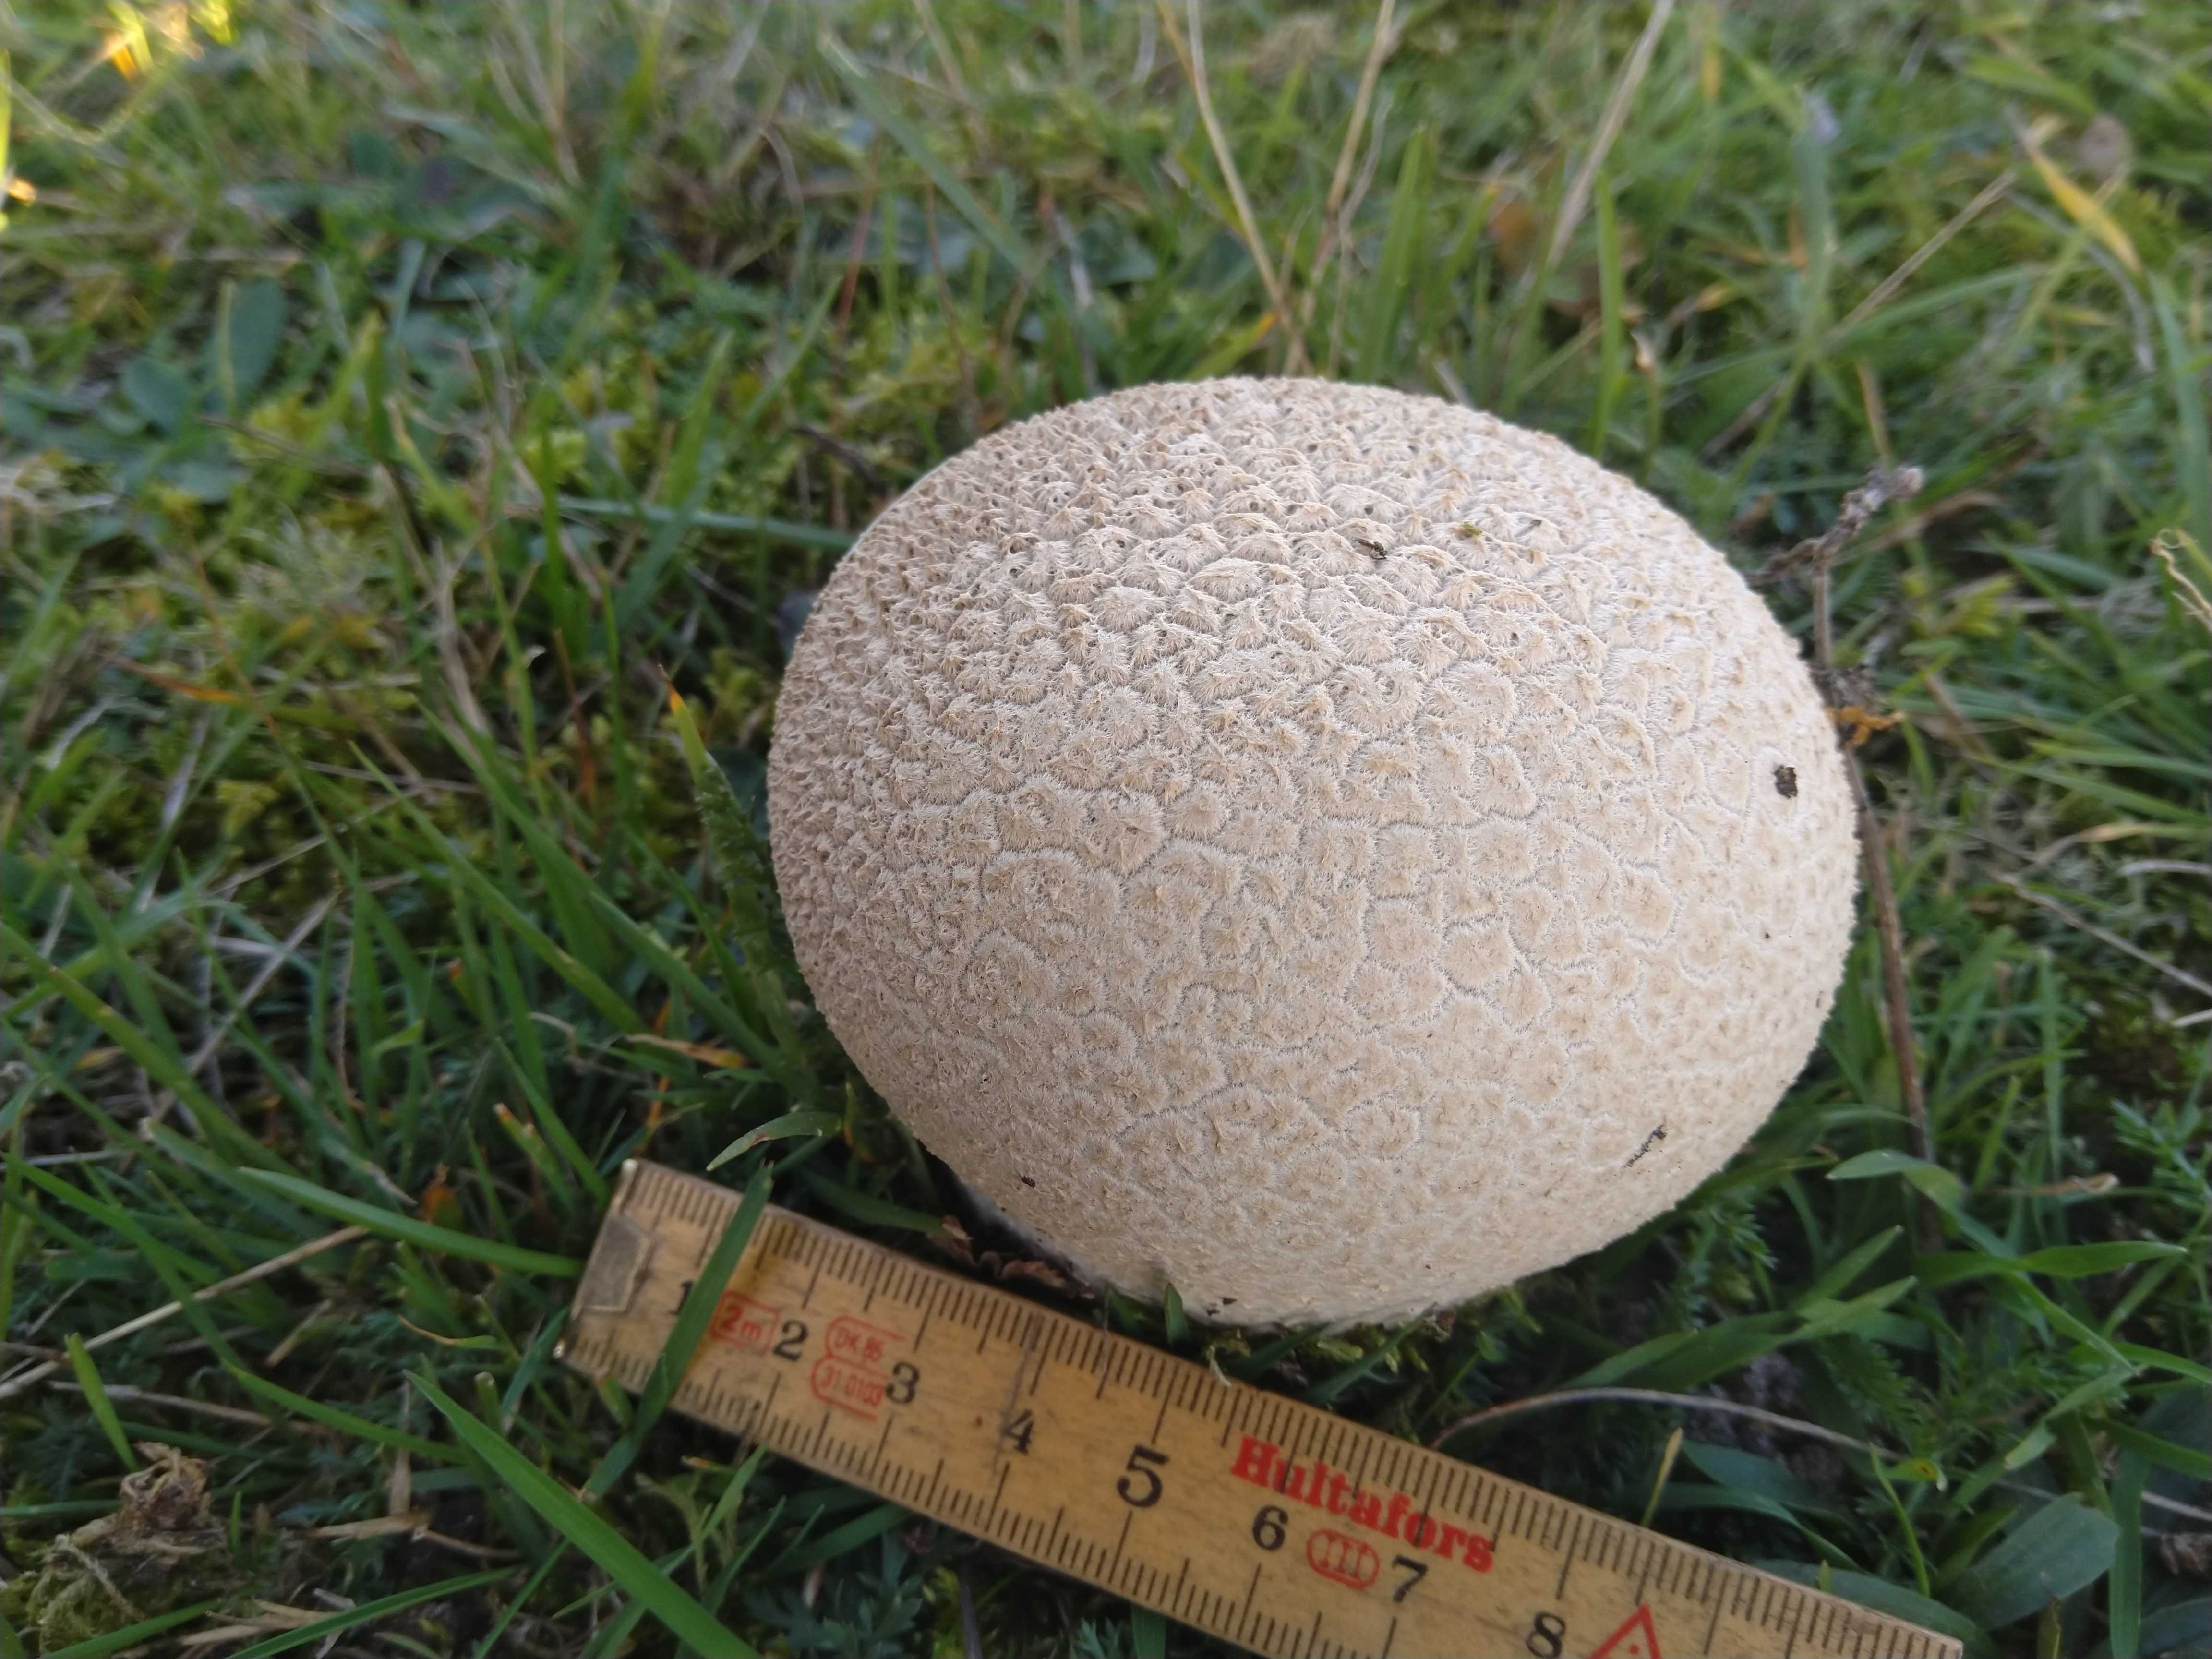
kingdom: Fungi
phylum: Basidiomycota
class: Agaricomycetes
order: Agaricales
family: Lycoperdaceae
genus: Bovistella
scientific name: Bovistella utriformis
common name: skællet støvbold
